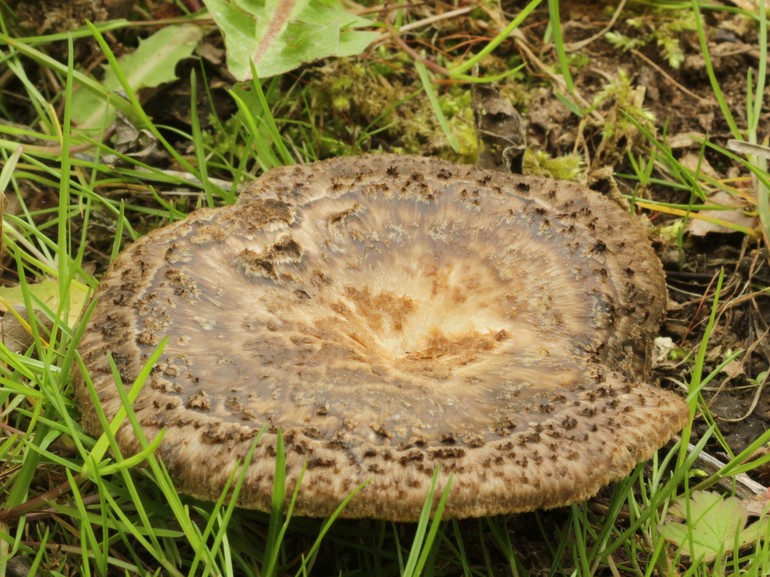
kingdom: Fungi
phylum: Basidiomycota
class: Agaricomycetes
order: Polyporales
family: Polyporaceae
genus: Polyporus
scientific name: Polyporus tuberaster
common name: knoldet stilkporesvamp
